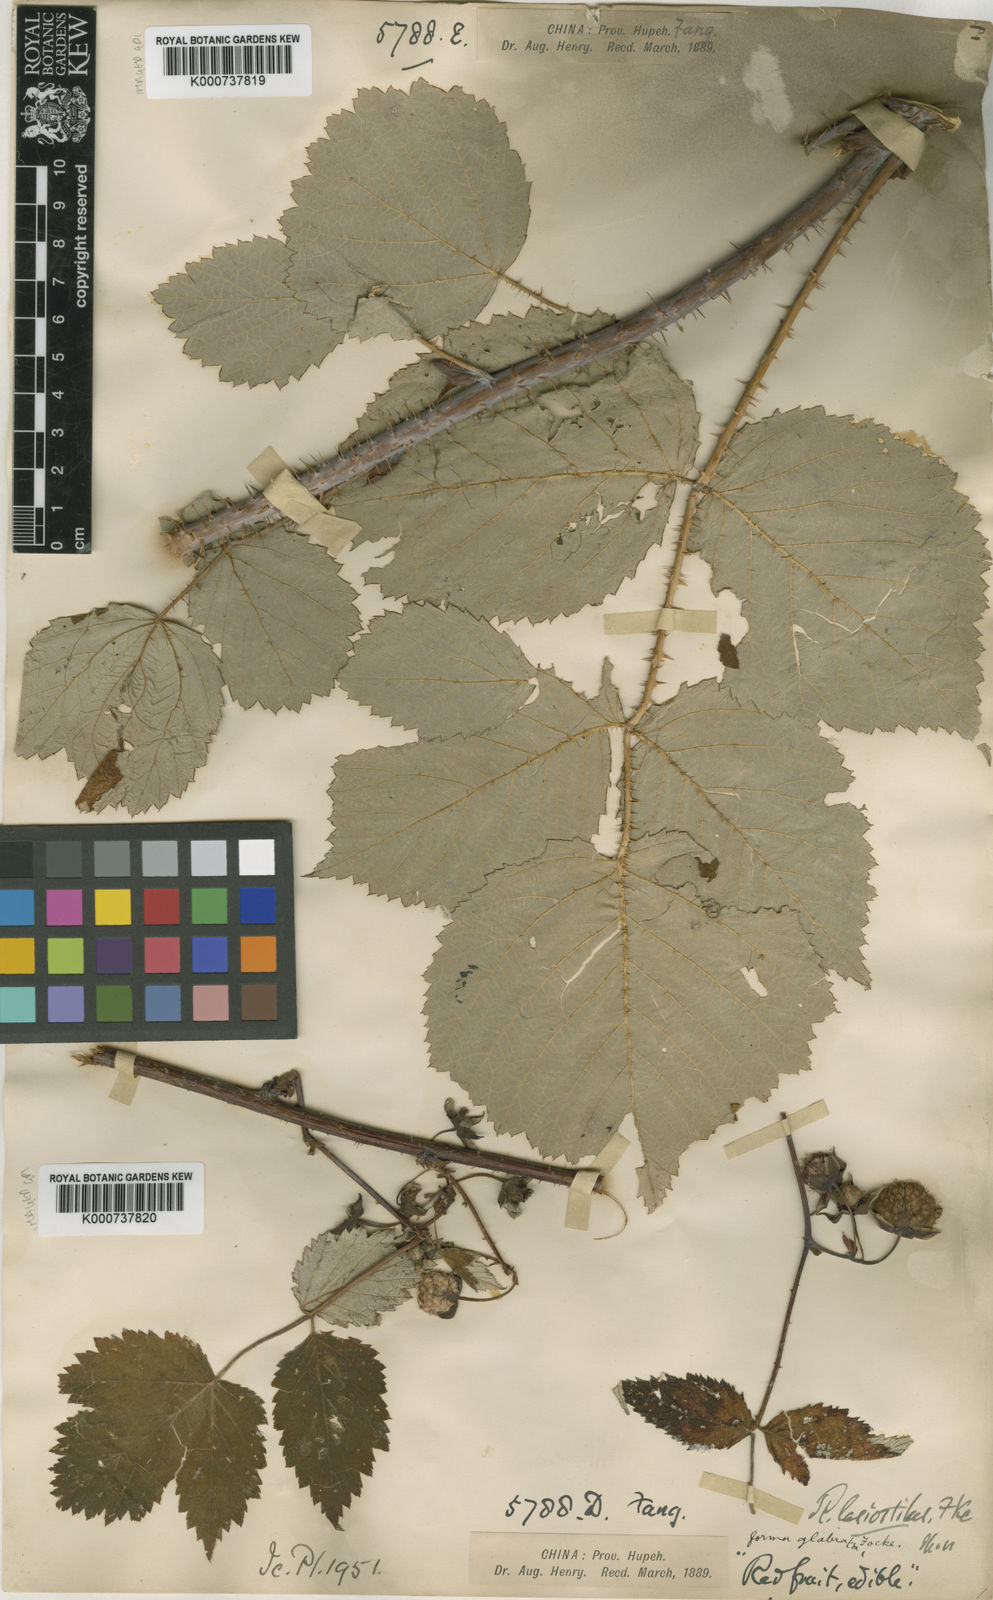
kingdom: Plantae
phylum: Tracheophyta
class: Magnoliopsida
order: Rosales
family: Rosaceae
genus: Rubus
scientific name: Rubus
